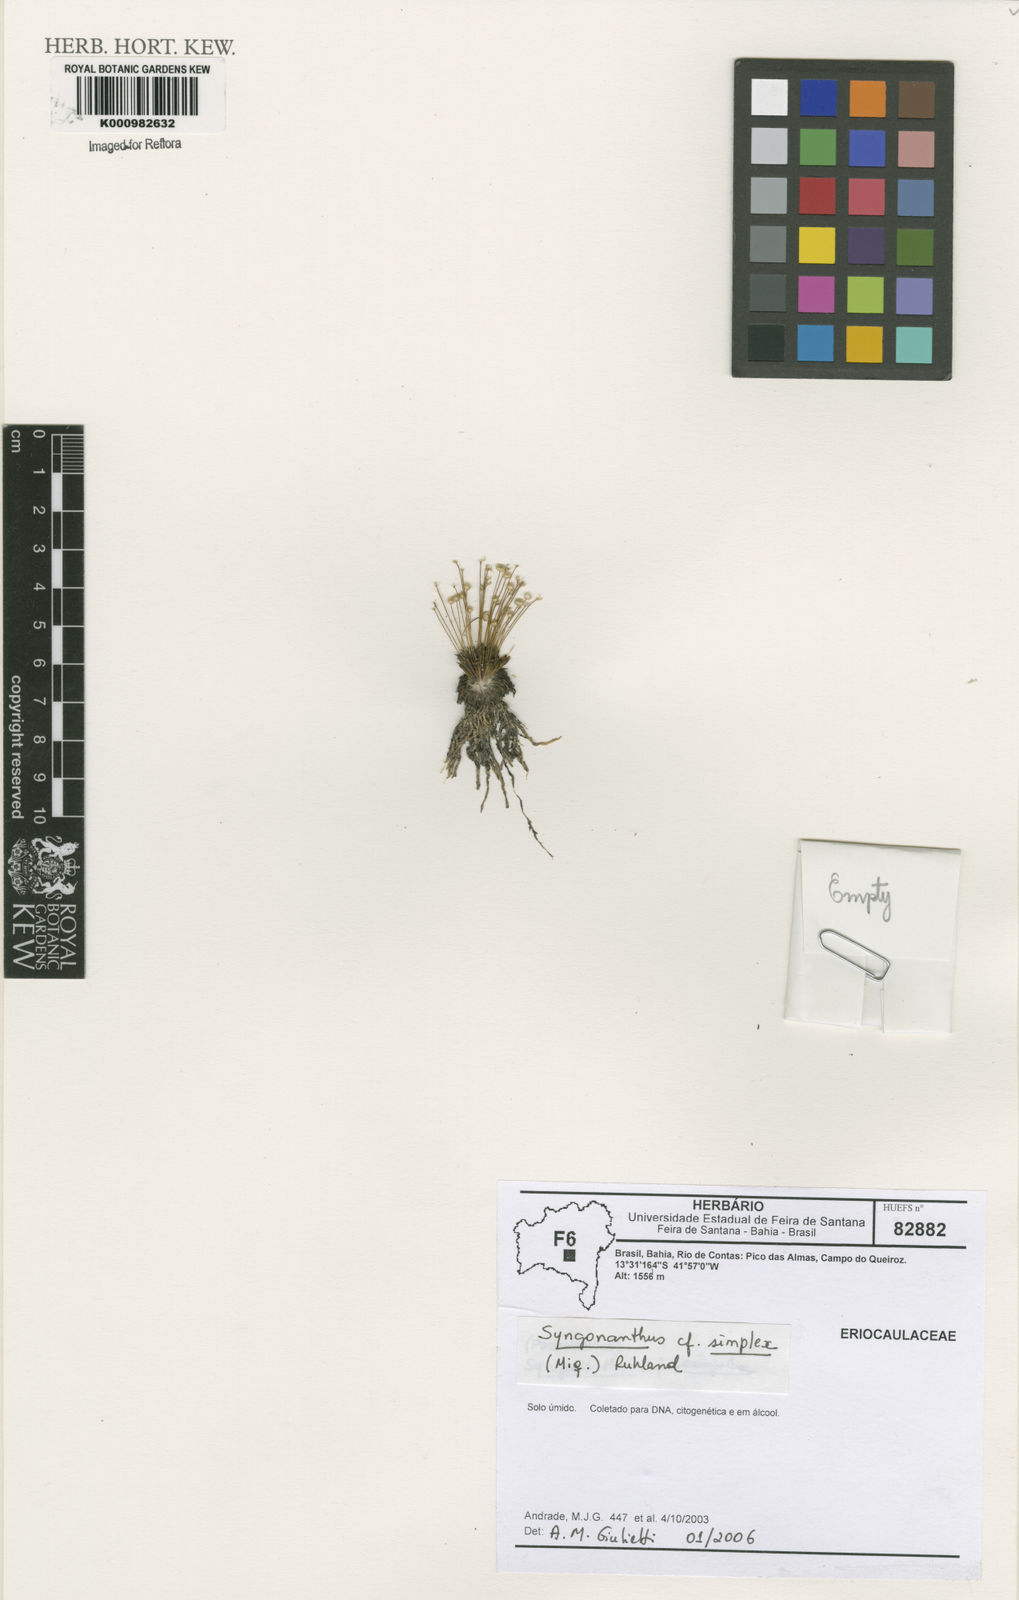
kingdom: Plantae
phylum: Tracheophyta
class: Liliopsida
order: Poales
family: Eriocaulaceae
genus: Syngonanthus
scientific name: Syngonanthus simplex
